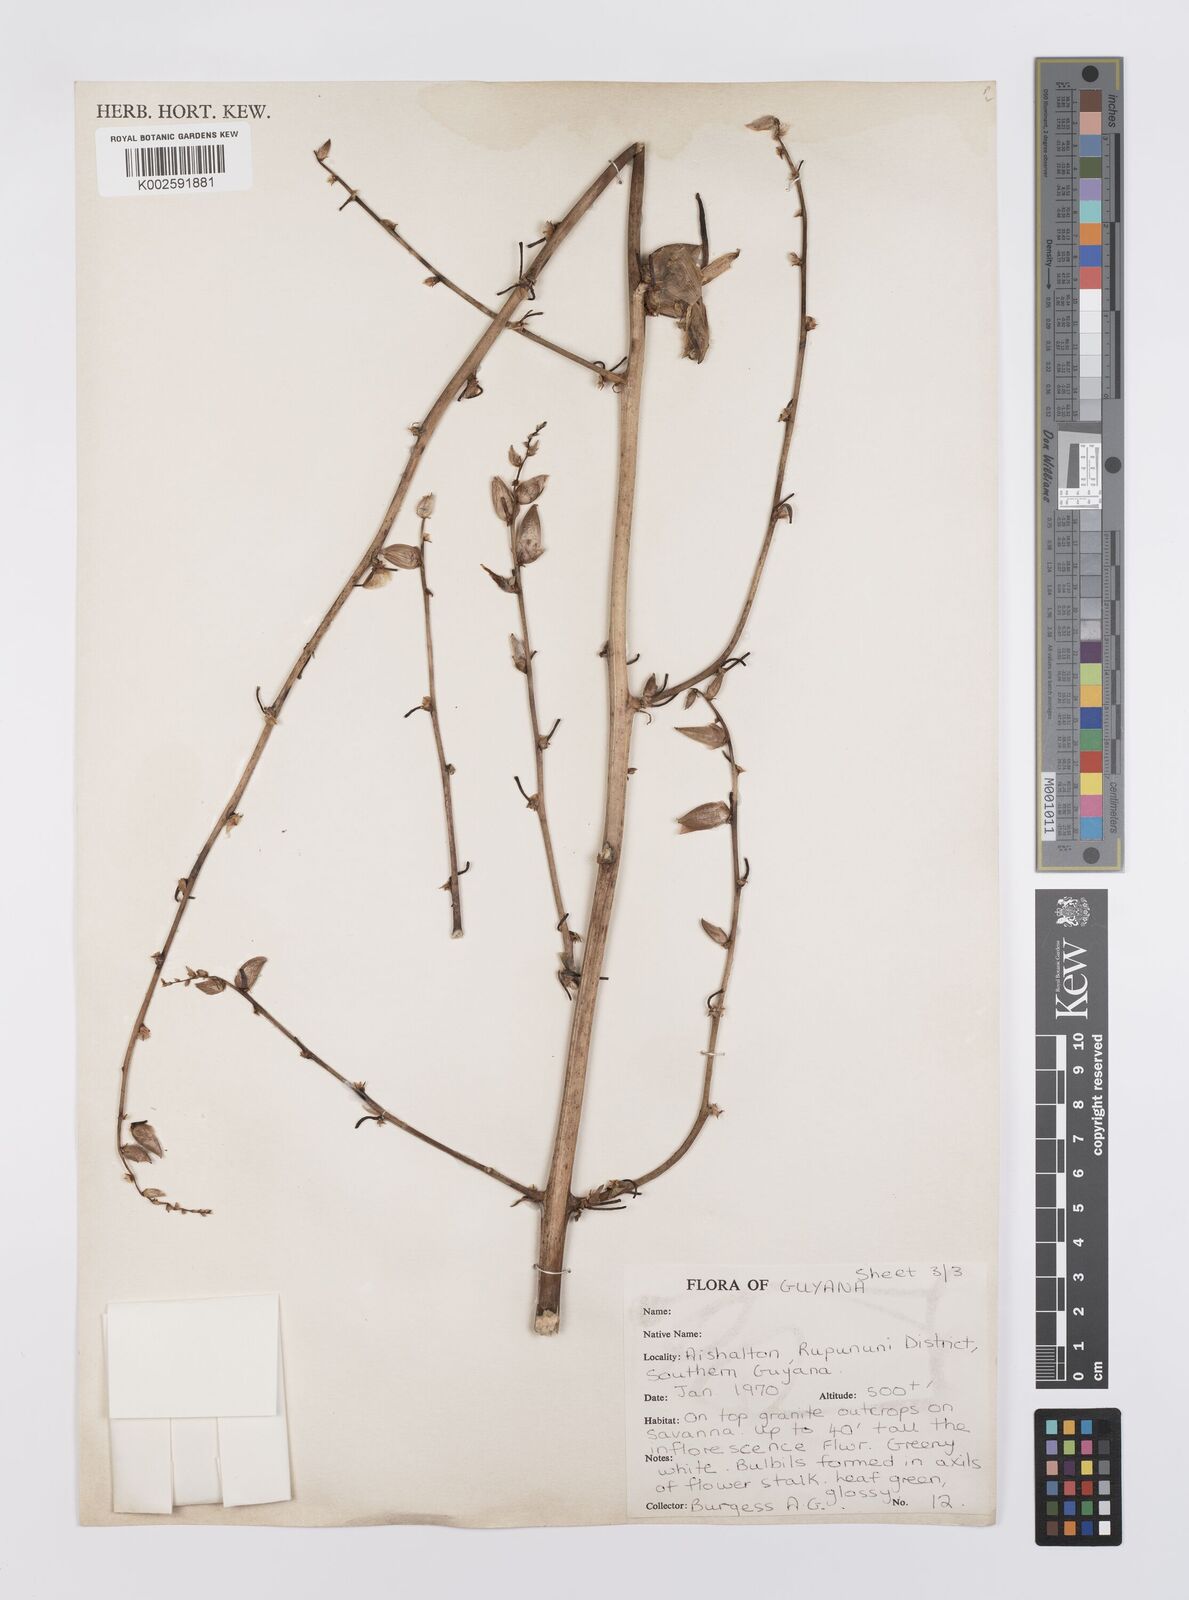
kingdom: Plantae
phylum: Tracheophyta
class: Liliopsida
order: Poales
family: Bromeliaceae
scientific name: Bromeliaceae
